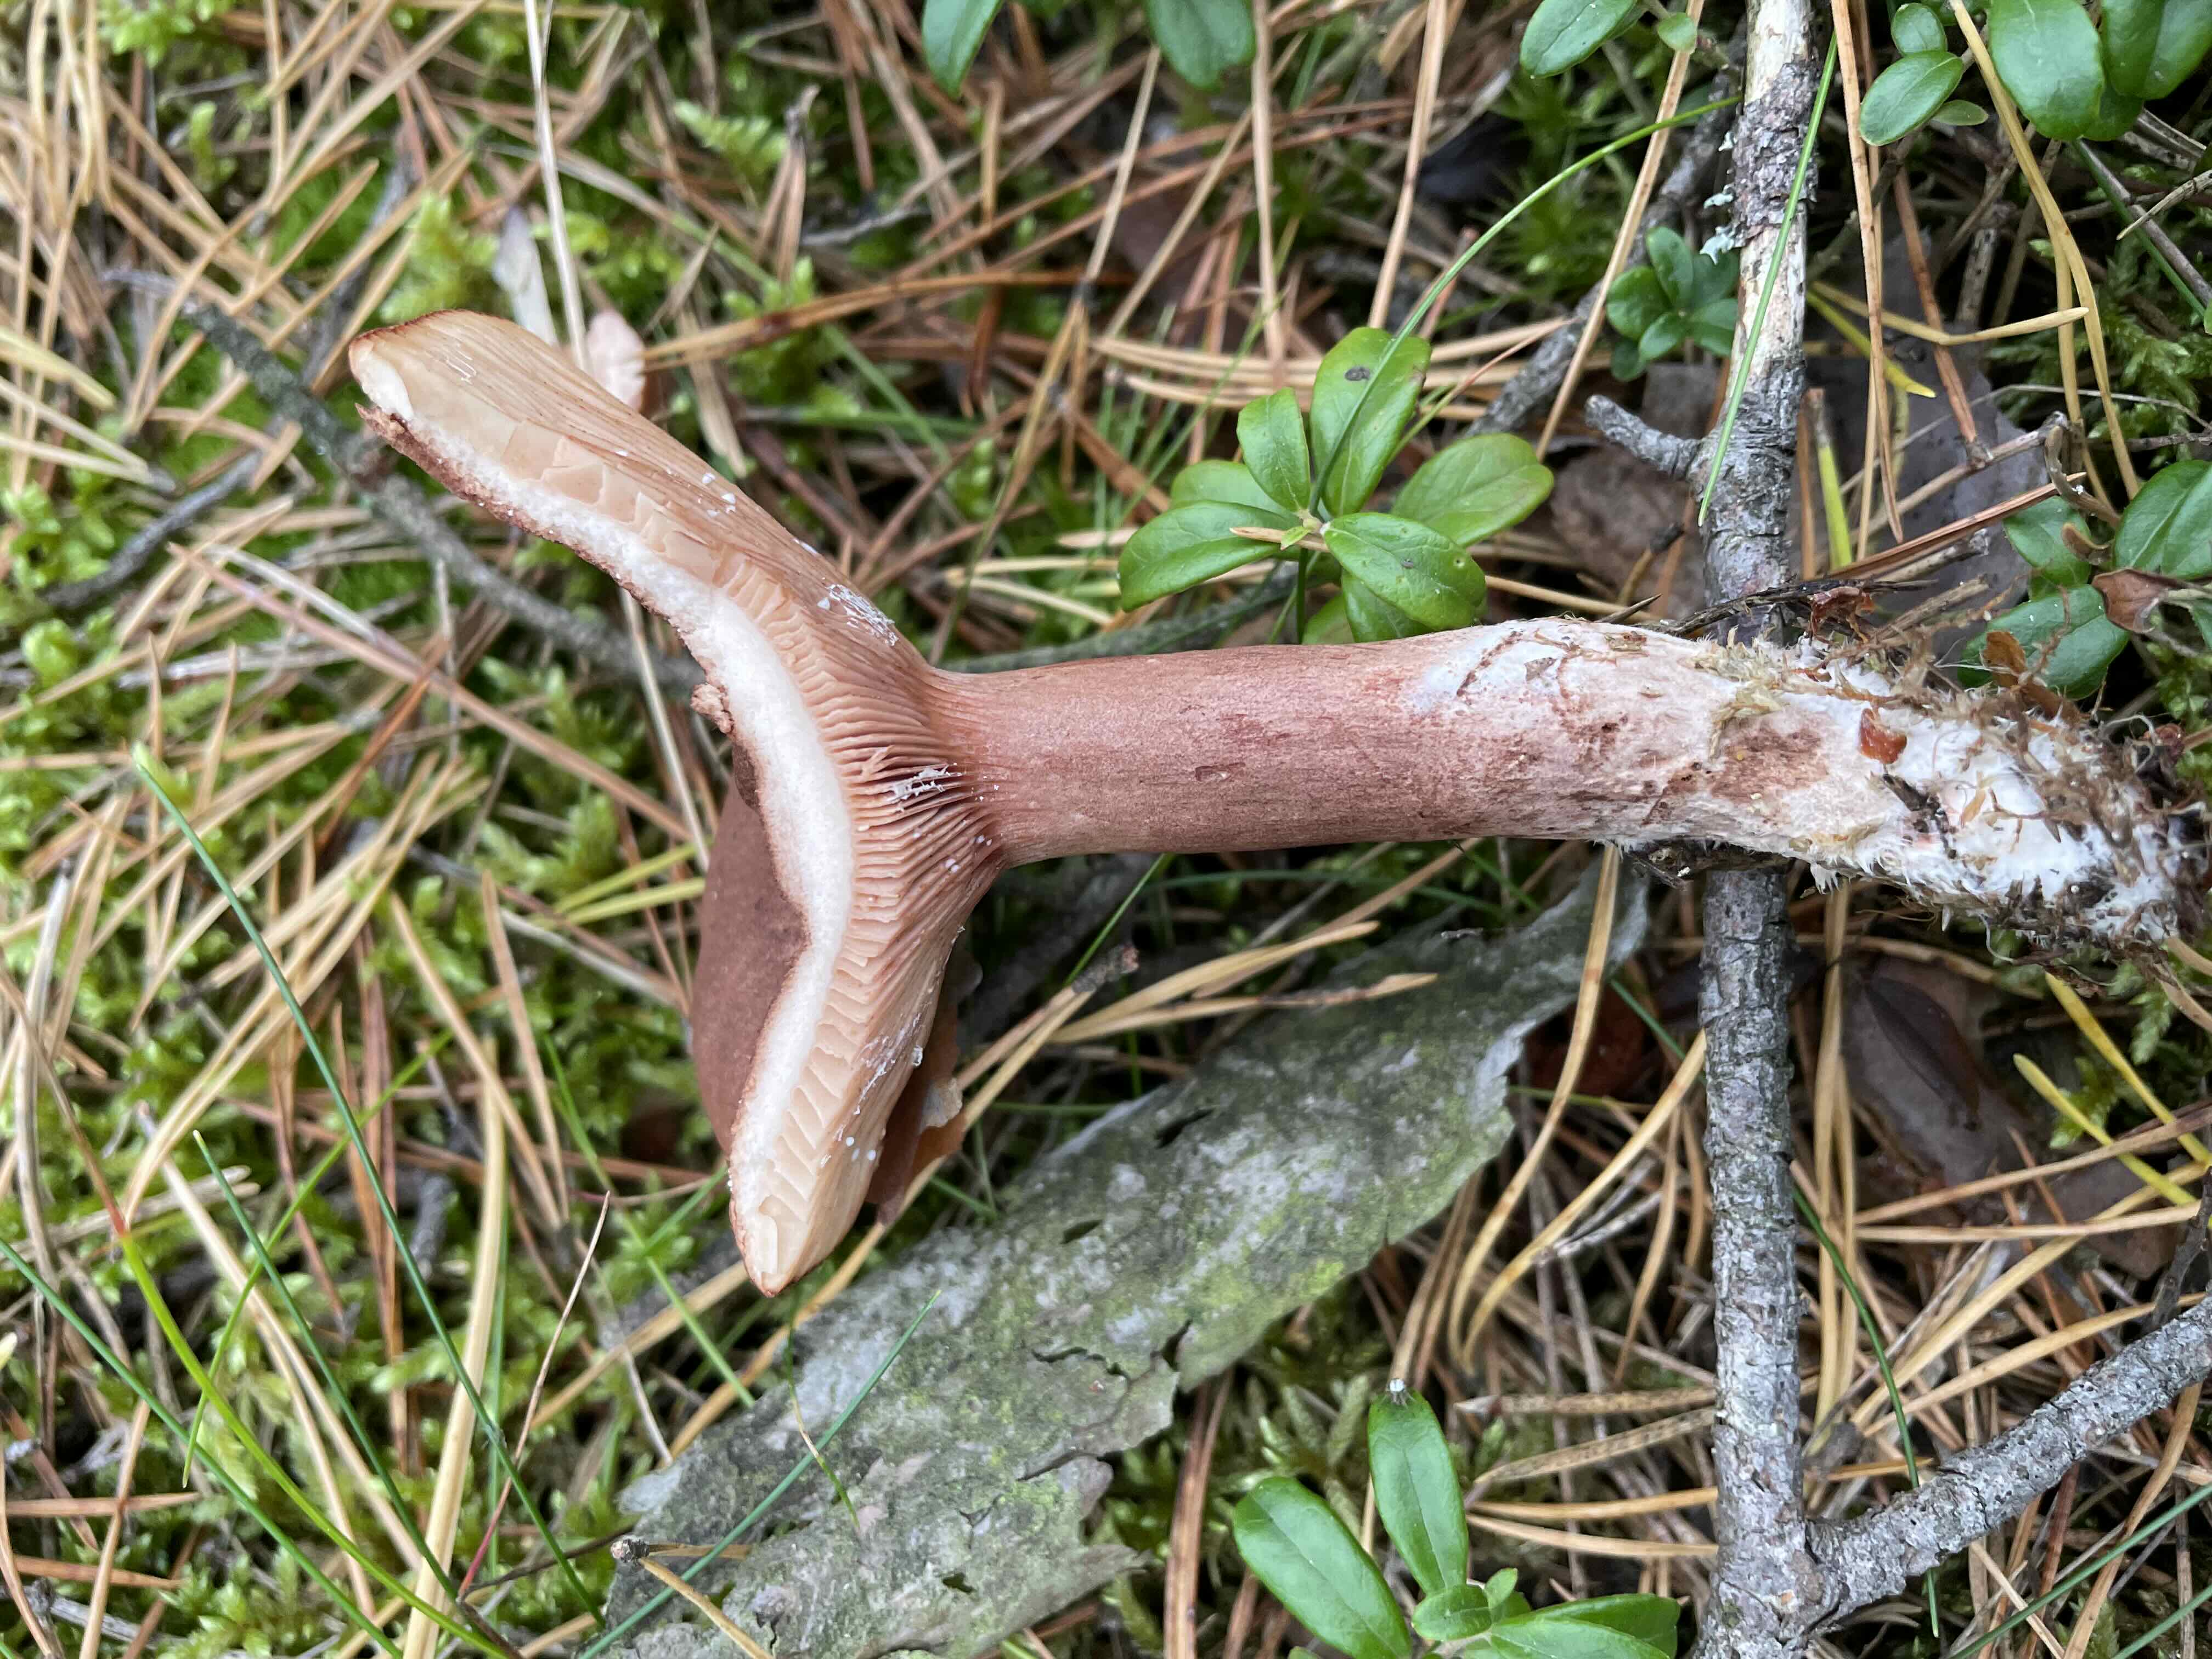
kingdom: Fungi
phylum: Basidiomycota
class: Agaricomycetes
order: Russulales
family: Russulaceae
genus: Lactarius
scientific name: Lactarius rufus
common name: rødbrun mælkehat
